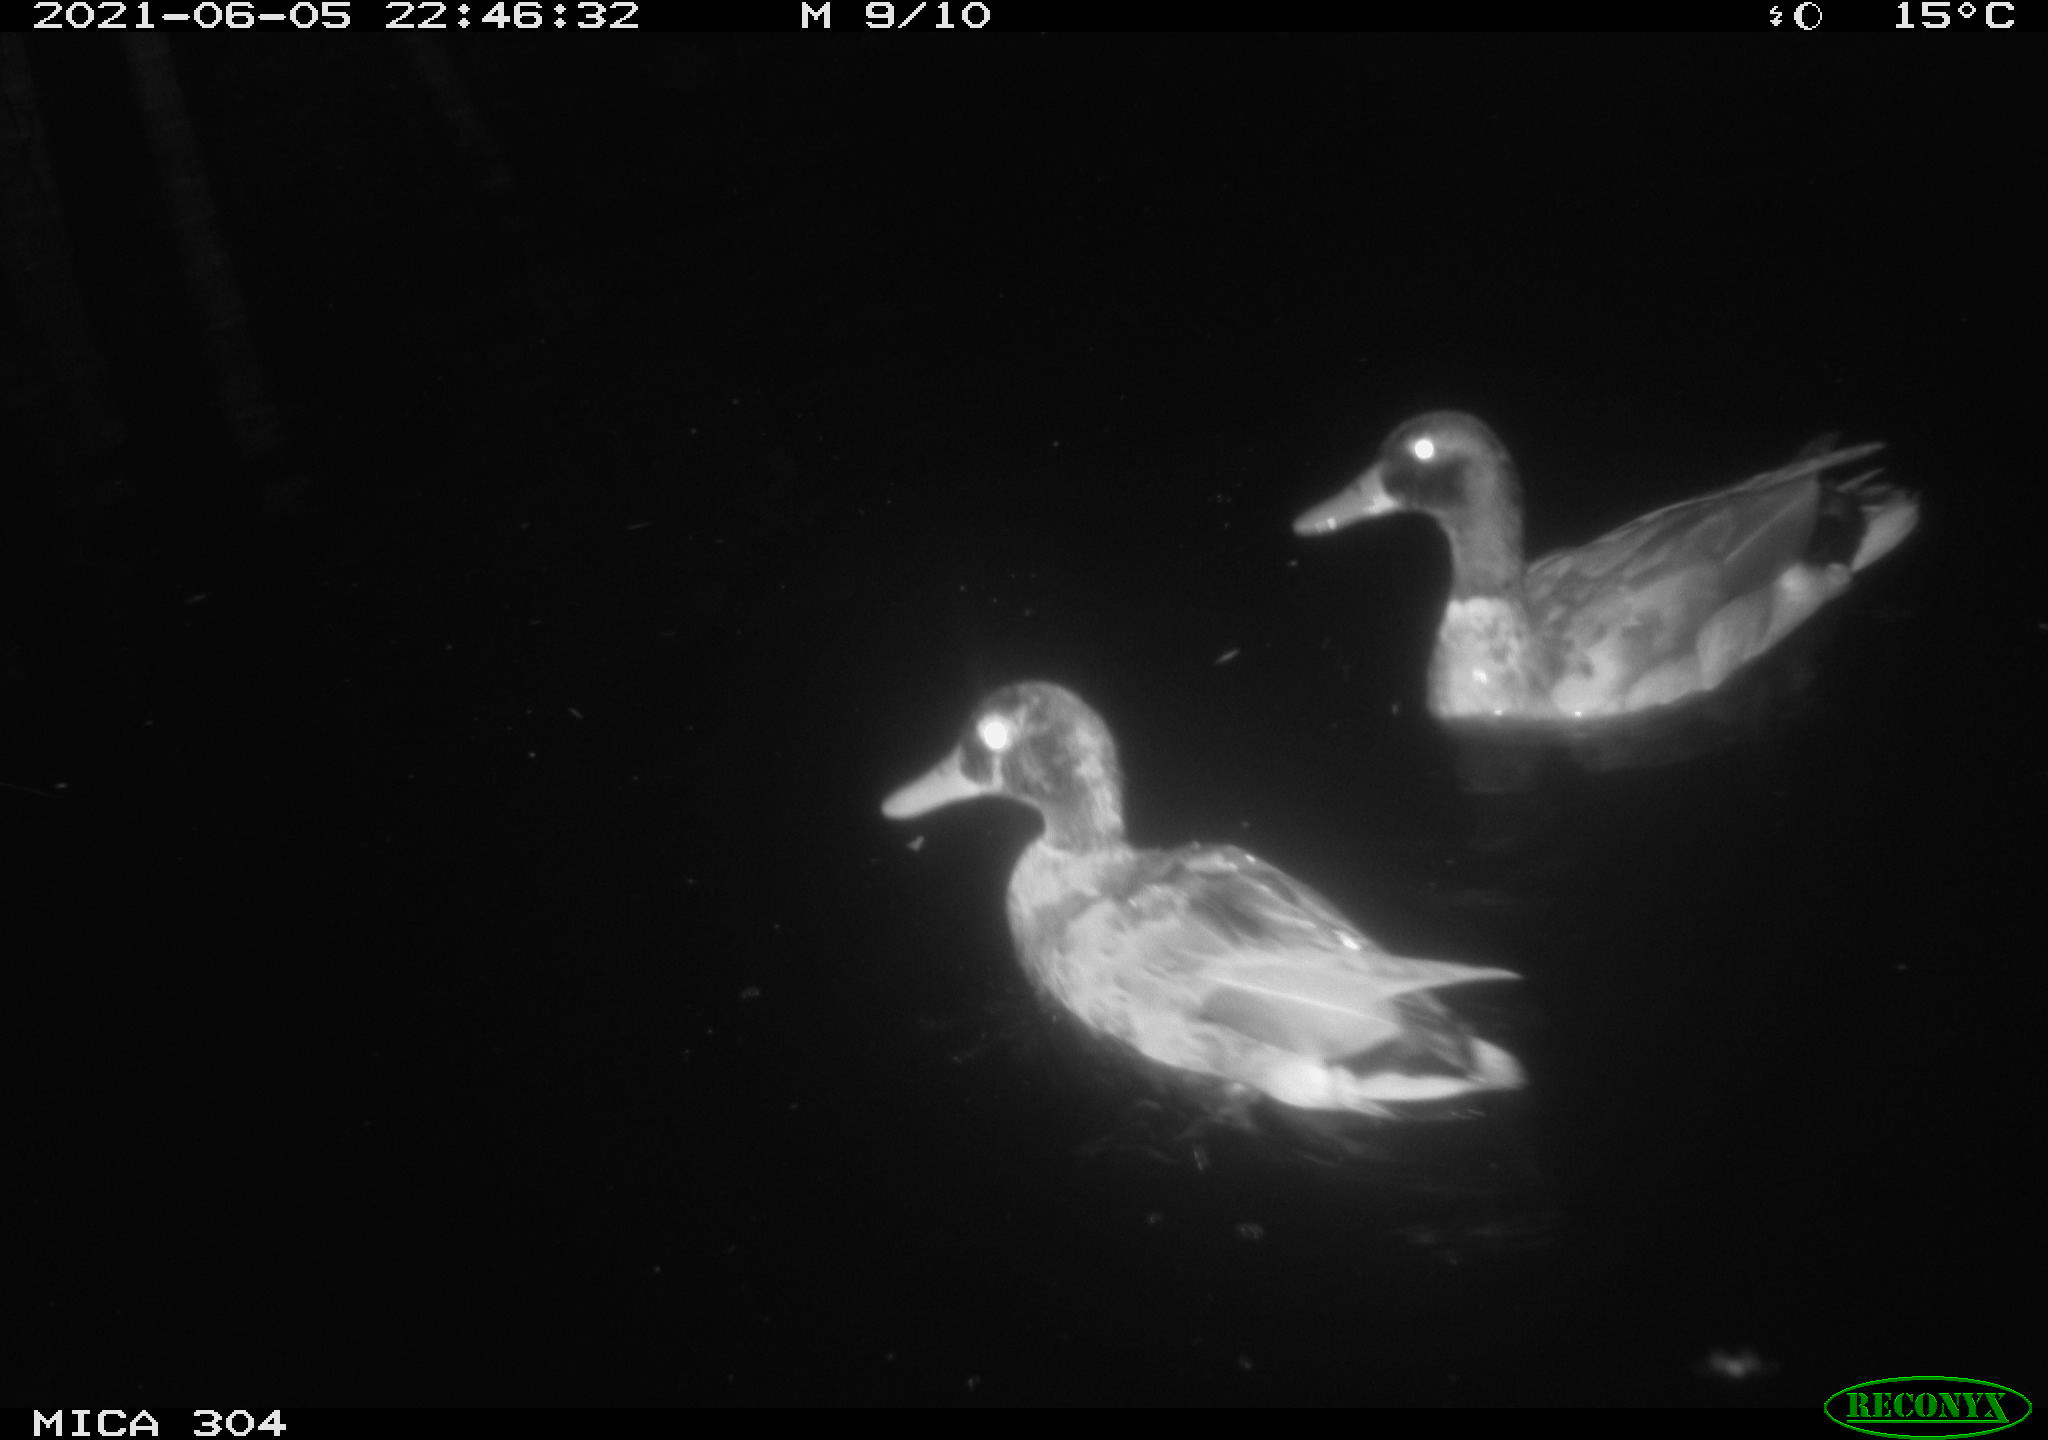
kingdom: Animalia
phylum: Chordata
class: Aves
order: Anseriformes
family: Anatidae
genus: Mareca
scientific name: Mareca strepera
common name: Gadwall
